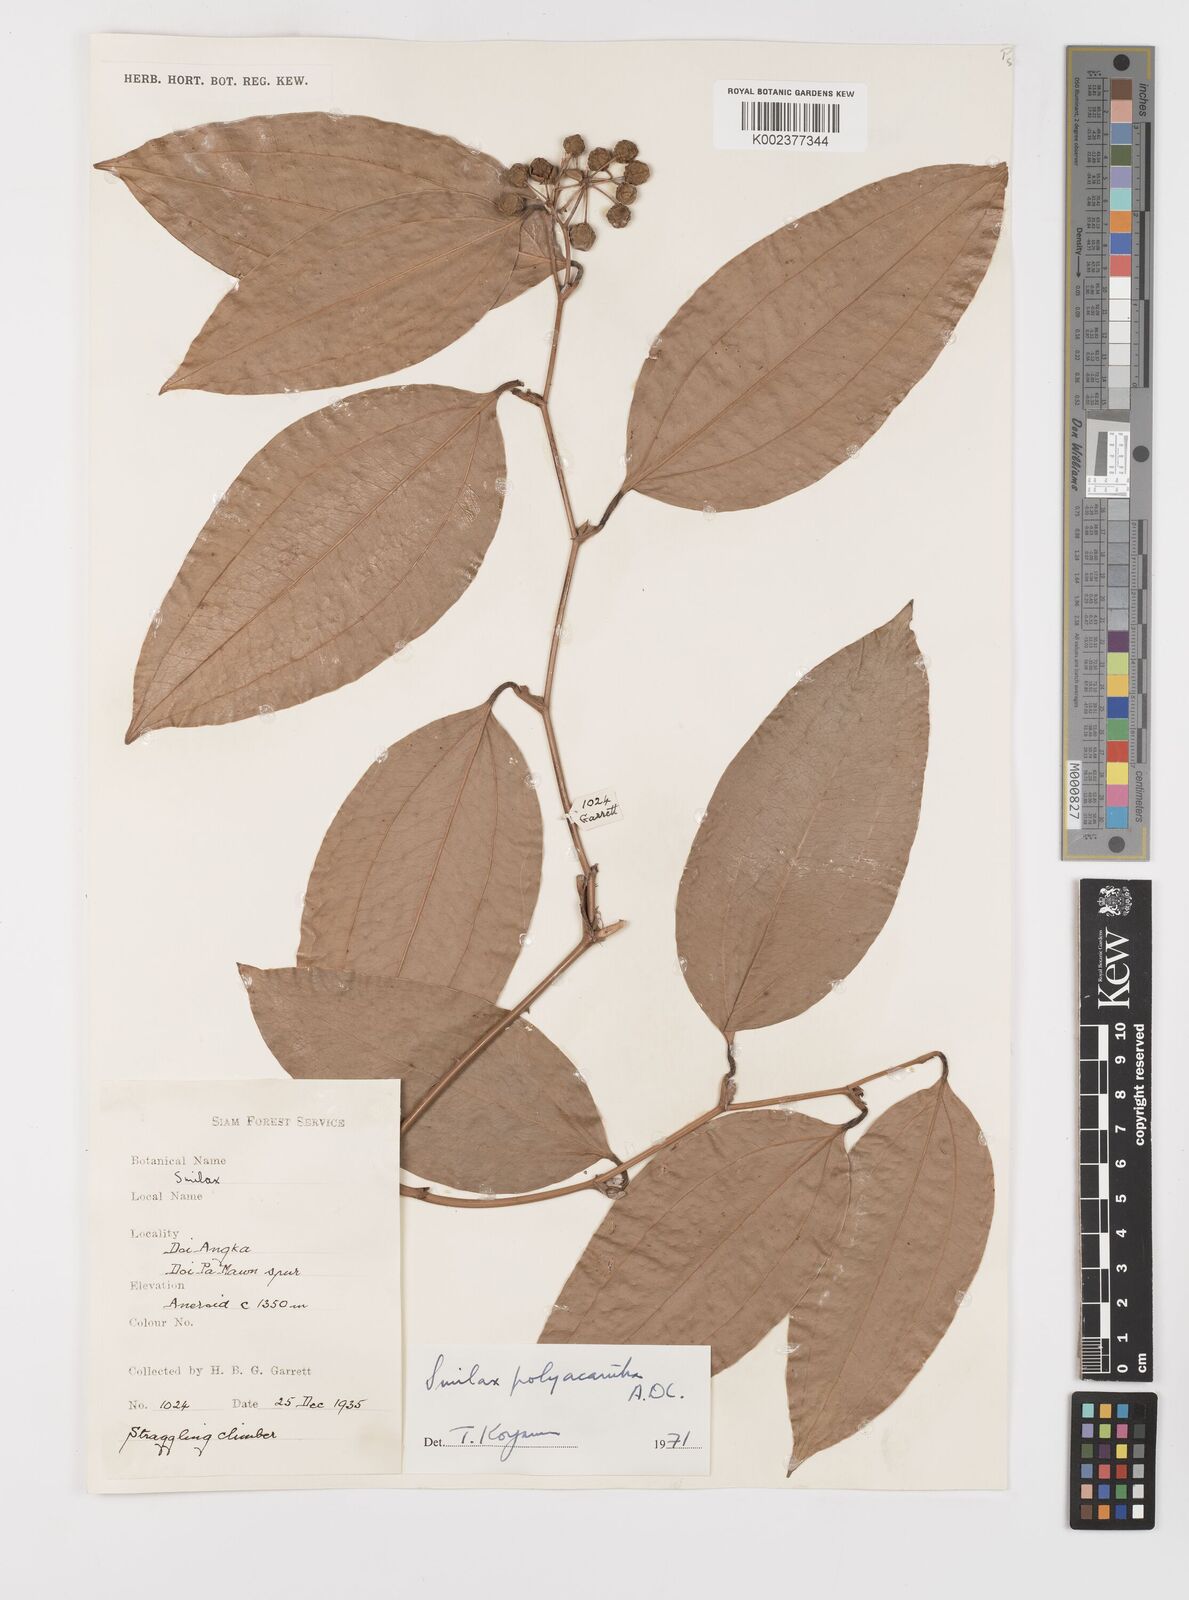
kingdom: Plantae
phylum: Tracheophyta
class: Liliopsida
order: Liliales
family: Smilacaceae
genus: Smilax
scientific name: Smilax polyacantha
